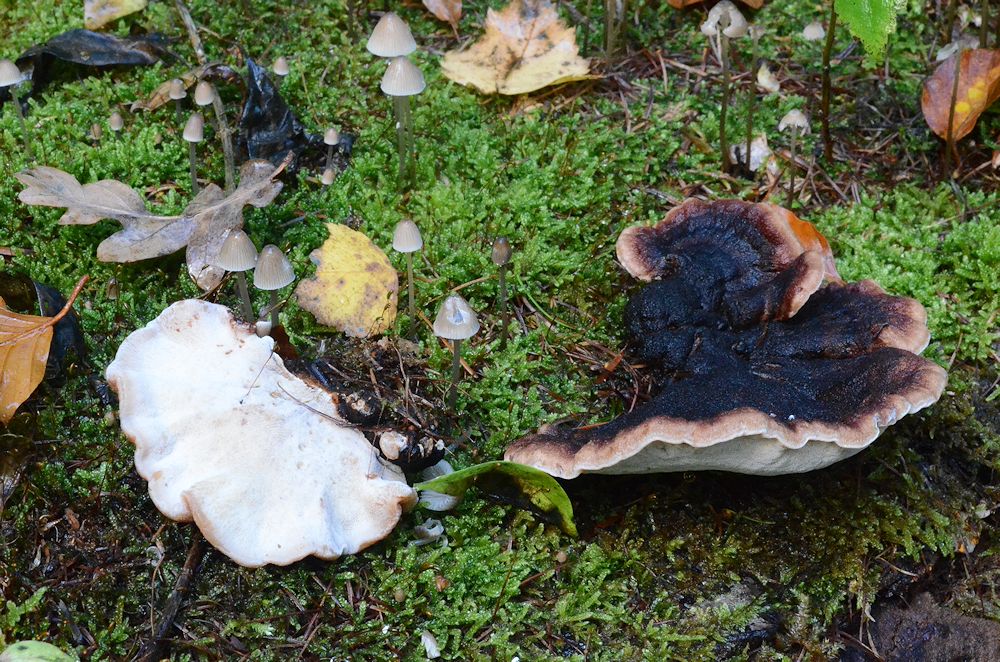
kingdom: Fungi
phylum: Basidiomycota
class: Agaricomycetes
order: Polyporales
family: Ischnodermataceae
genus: Ischnoderma
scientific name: Ischnoderma benzoinum
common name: gran-tjæreporesvamp
